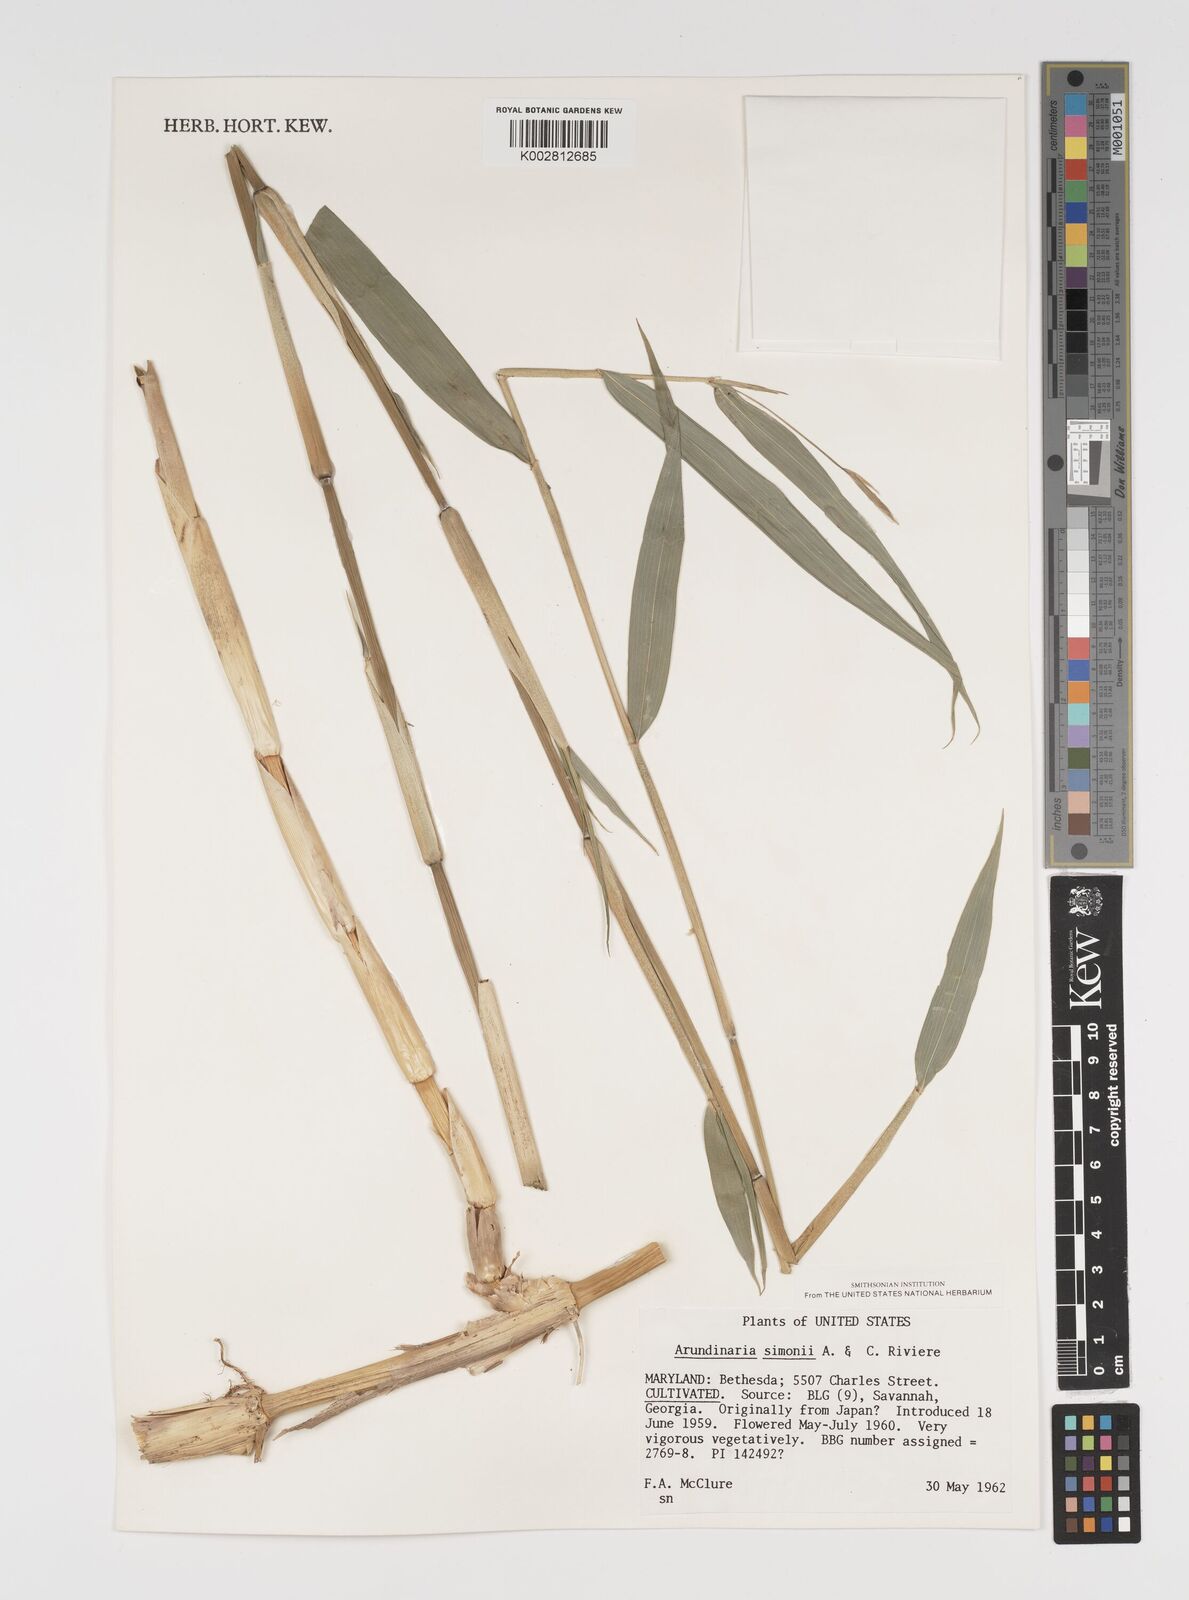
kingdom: Plantae
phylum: Tracheophyta
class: Liliopsida
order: Poales
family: Poaceae
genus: Pleioblastus
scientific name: Pleioblastus simonii
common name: Simon bamboo
